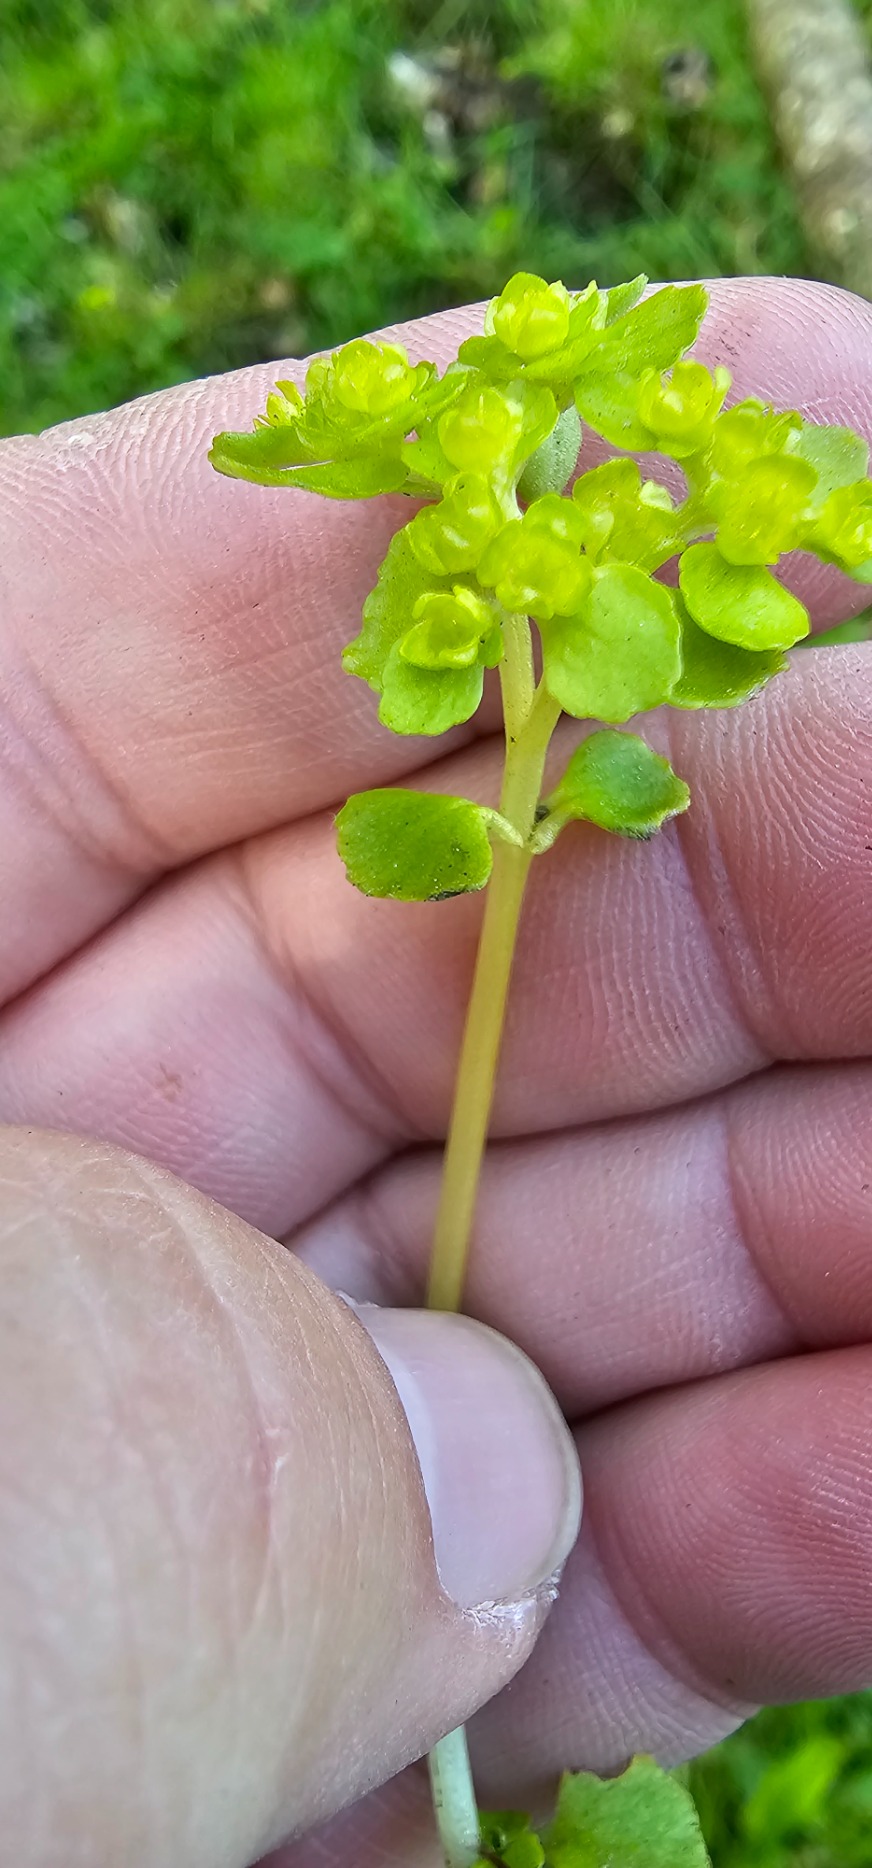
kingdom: Plantae
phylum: Tracheophyta
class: Magnoliopsida
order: Saxifragales
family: Saxifragaceae
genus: Chrysosplenium
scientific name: Chrysosplenium oppositifolium
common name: Småbladet milturt
